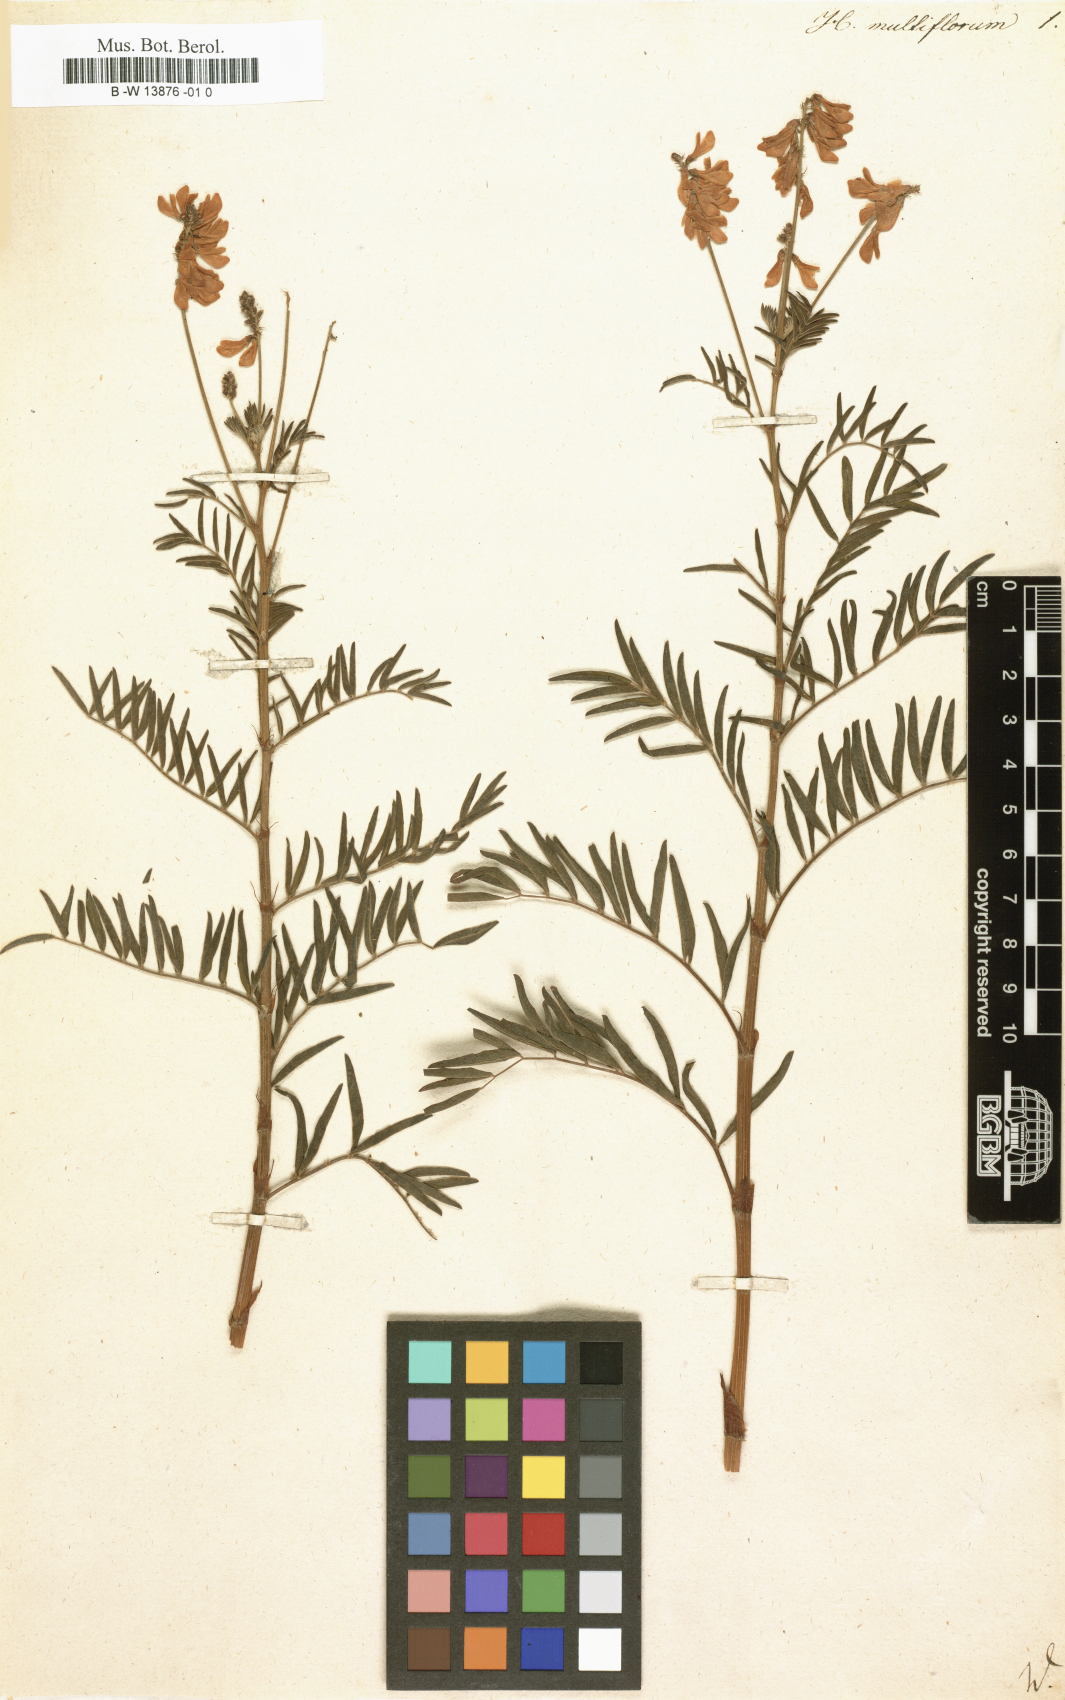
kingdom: Plantae
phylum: Tracheophyta
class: Magnoliopsida
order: Fabales
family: Fabaceae
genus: Desmodium
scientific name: Desmodium cajanifolium
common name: Tropical ticktrefoil
